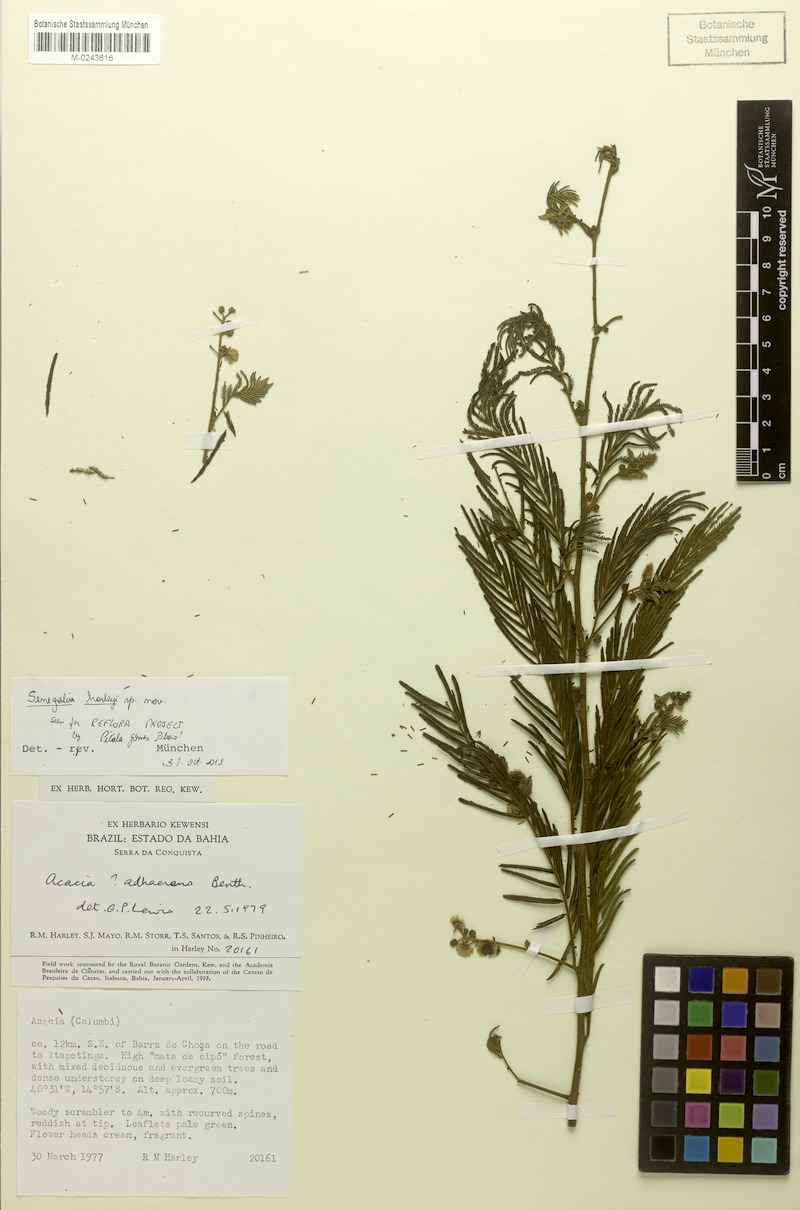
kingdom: Plantae
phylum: Tracheophyta
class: Magnoliopsida
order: Fabales
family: Fabaceae
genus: Senegalia
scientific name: Senegalia harleyi
